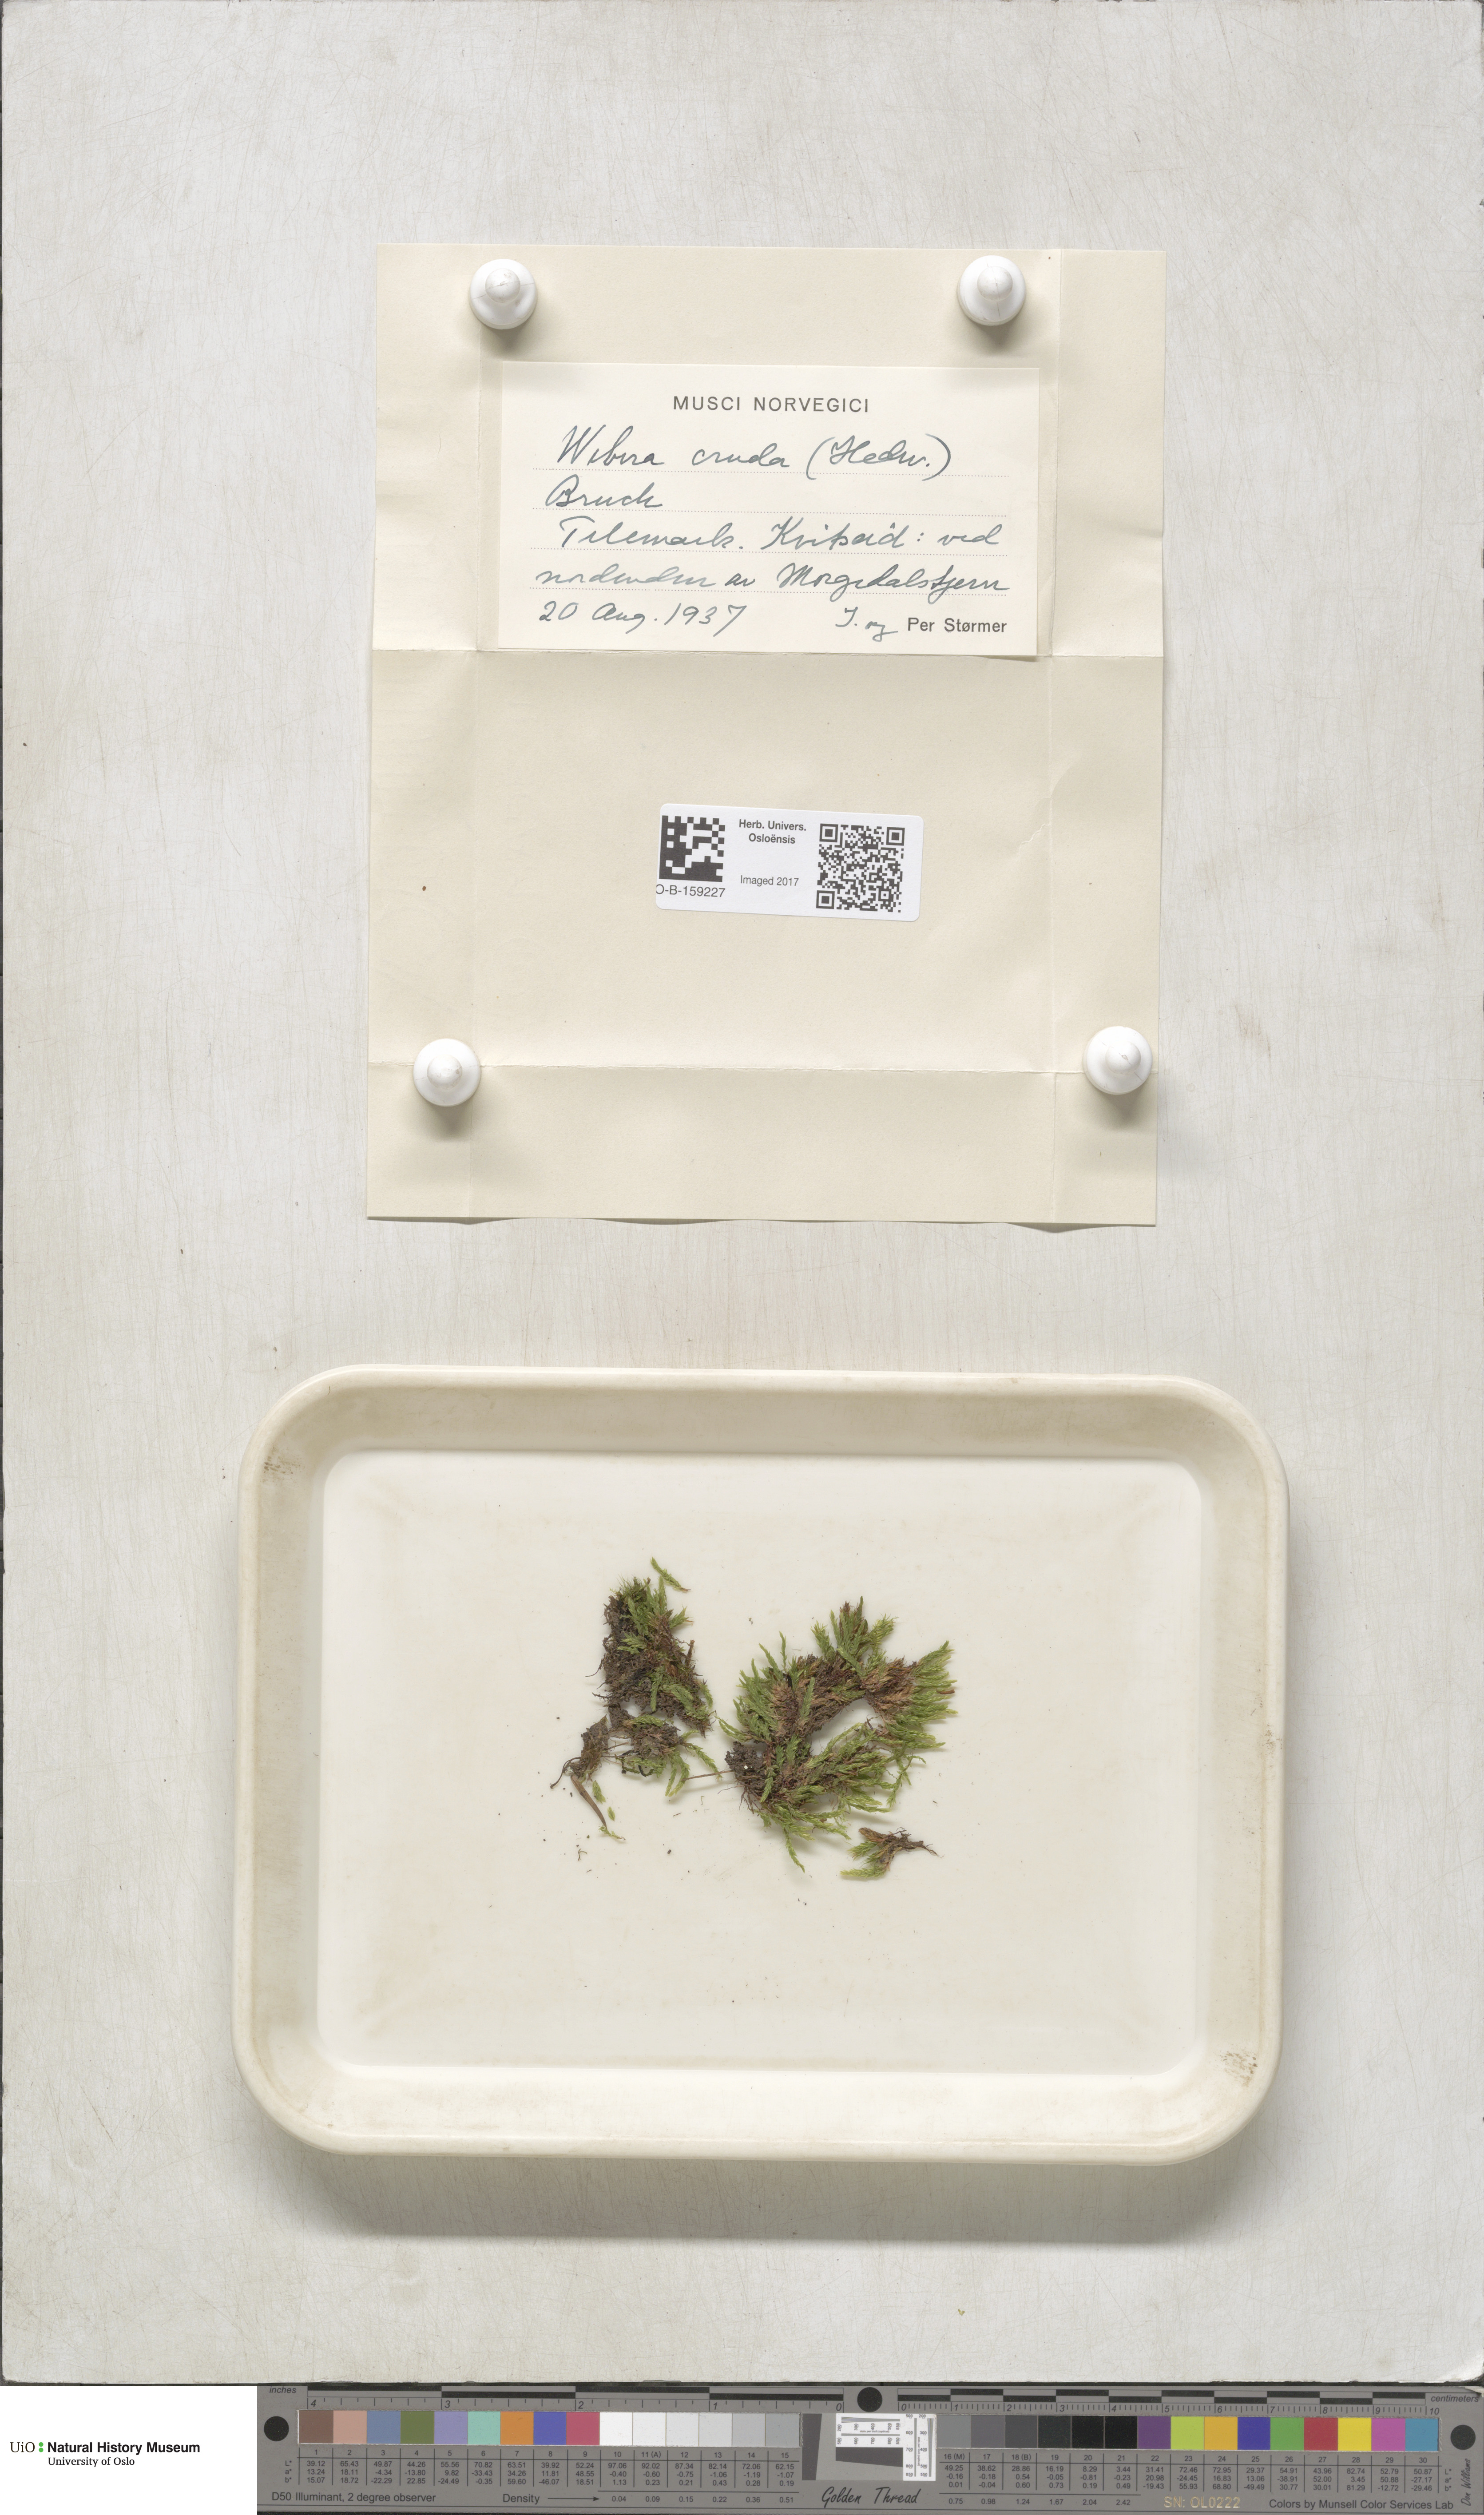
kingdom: Plantae
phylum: Bryophyta
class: Bryopsida
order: Bryales
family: Mniaceae
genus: Pohlia
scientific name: Pohlia cruda
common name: Opal nodding moss
